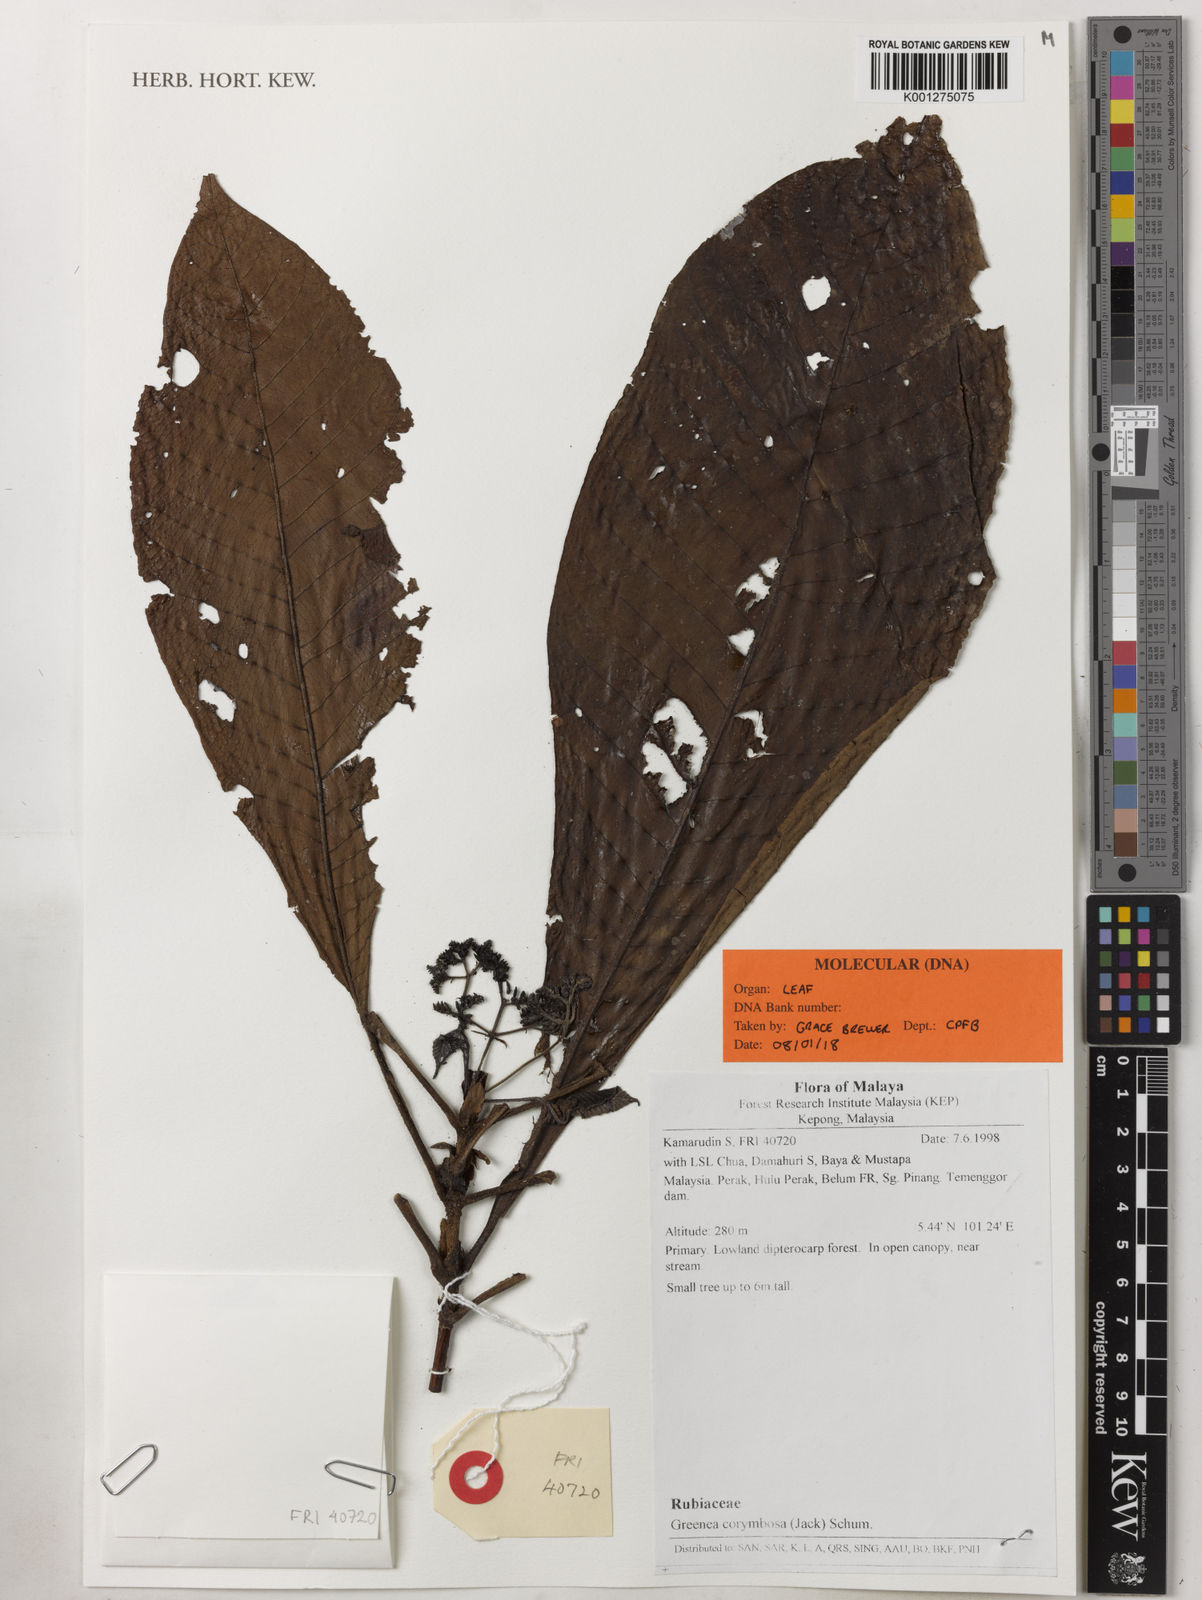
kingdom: Plantae
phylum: Tracheophyta
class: Magnoliopsida
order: Gentianales
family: Rubiaceae
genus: Greenea
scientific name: Greenea
